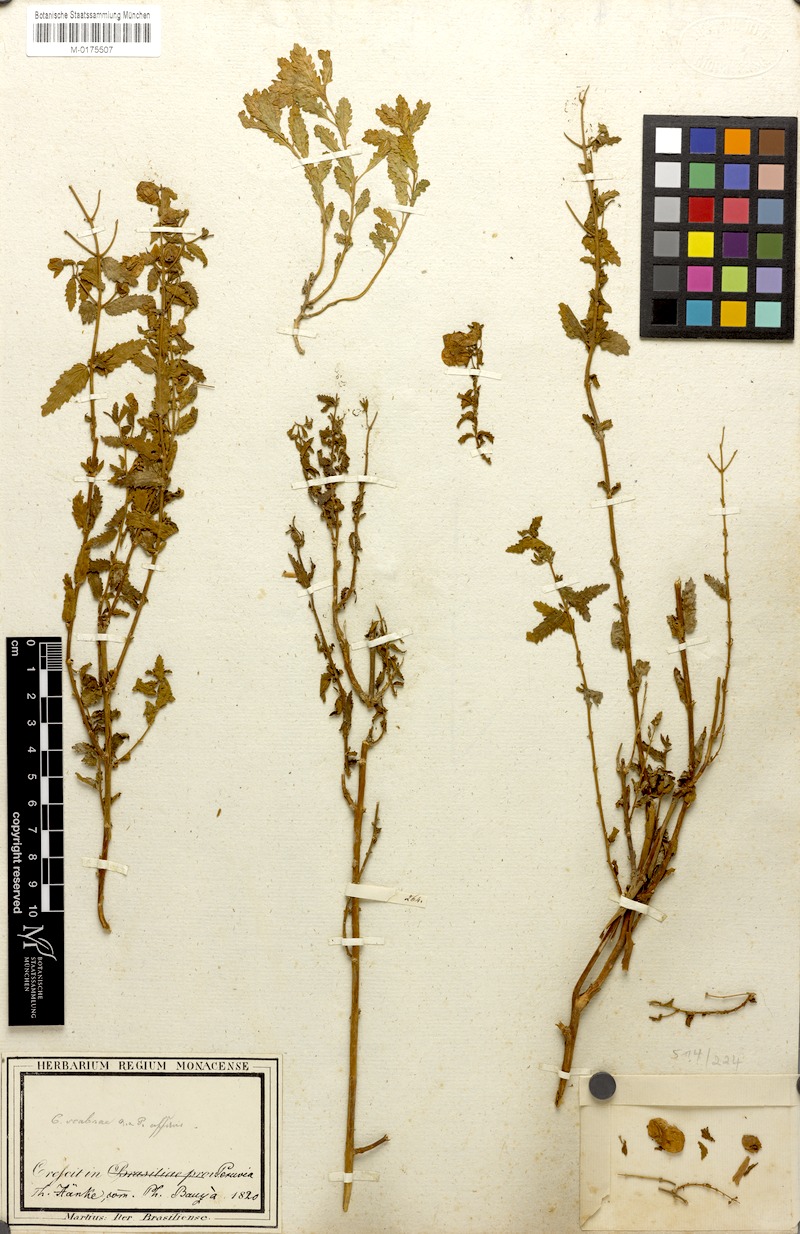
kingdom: Plantae
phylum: Tracheophyta
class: Magnoliopsida
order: Lamiales
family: Calceolariaceae
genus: Calceolaria
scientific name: Calceolaria scabra
